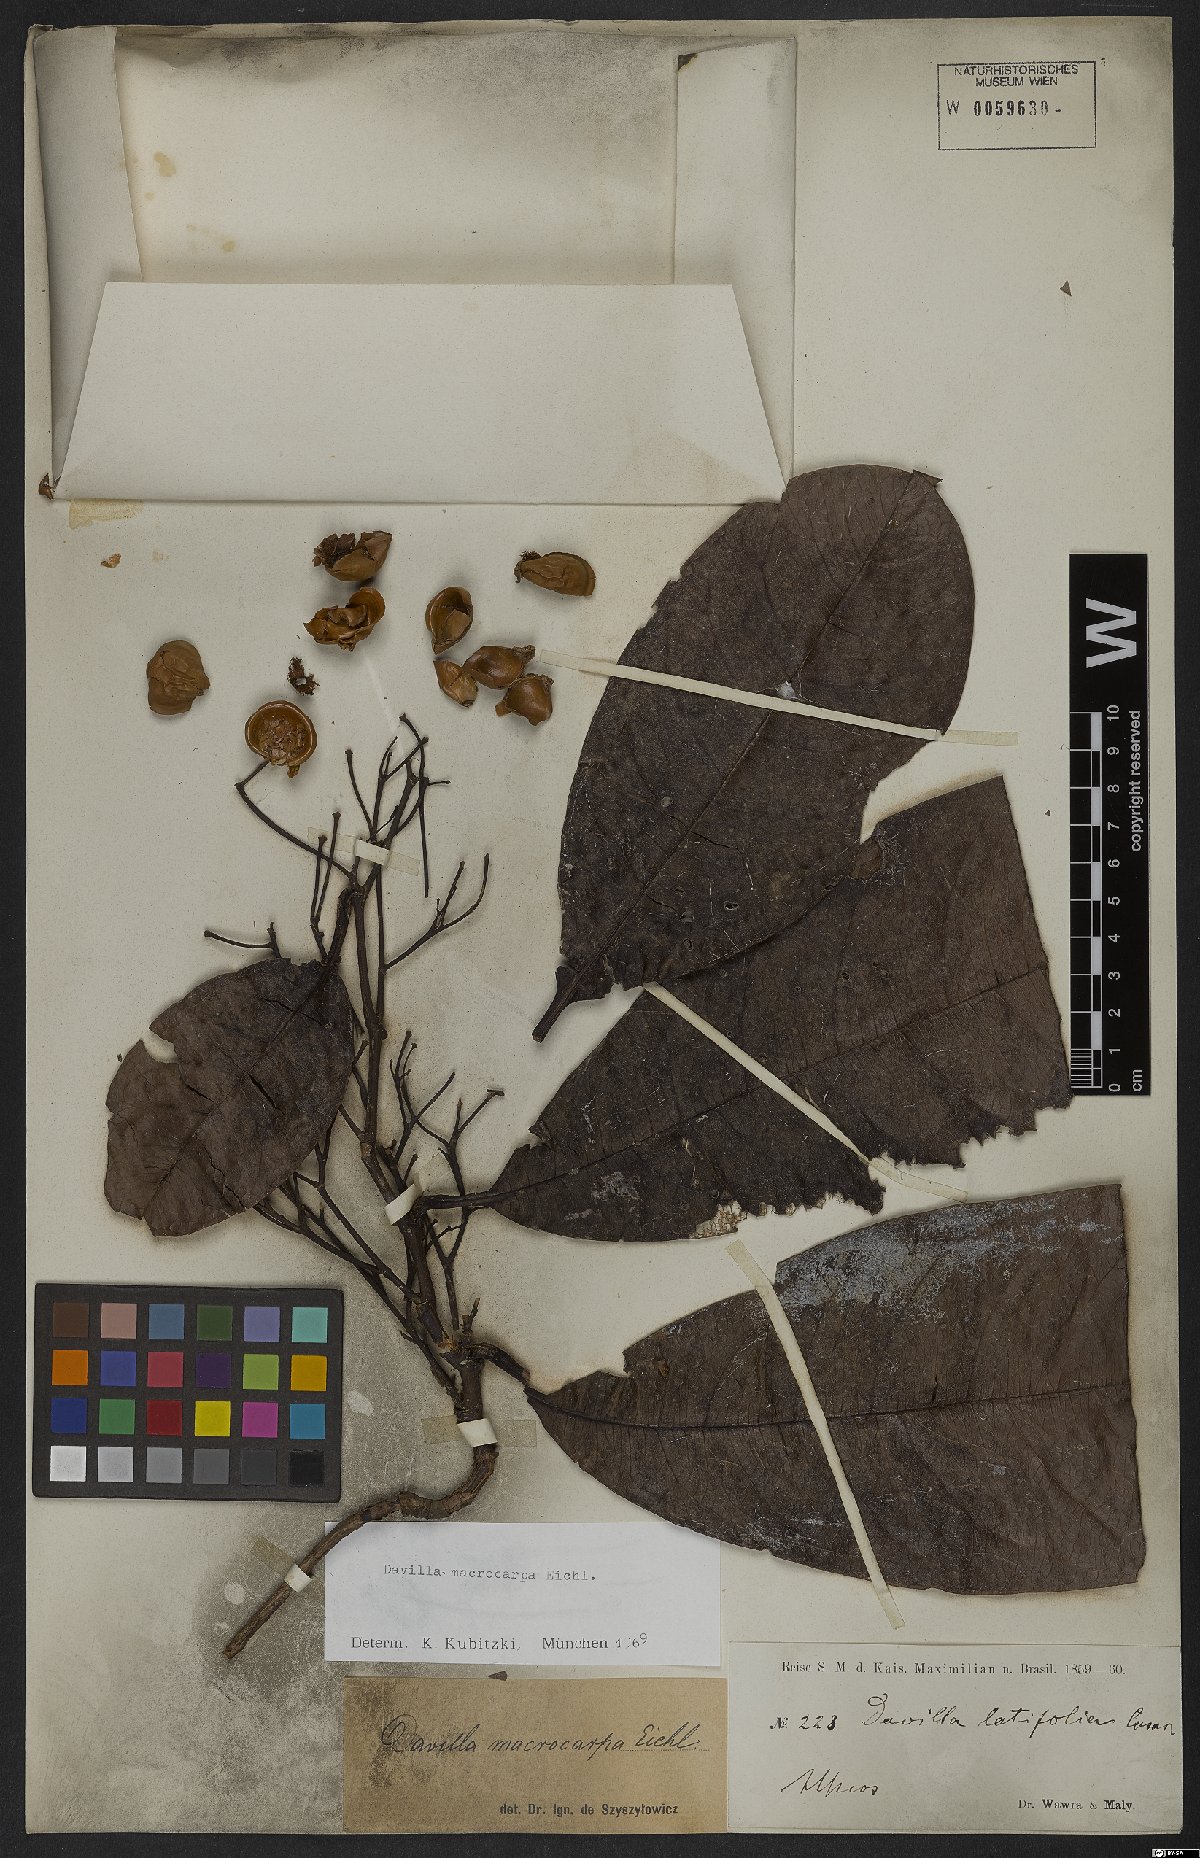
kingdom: Plantae
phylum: Tracheophyta
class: Magnoliopsida
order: Dilleniales
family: Dilleniaceae
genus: Davilla
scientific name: Davilla macrocarpa
